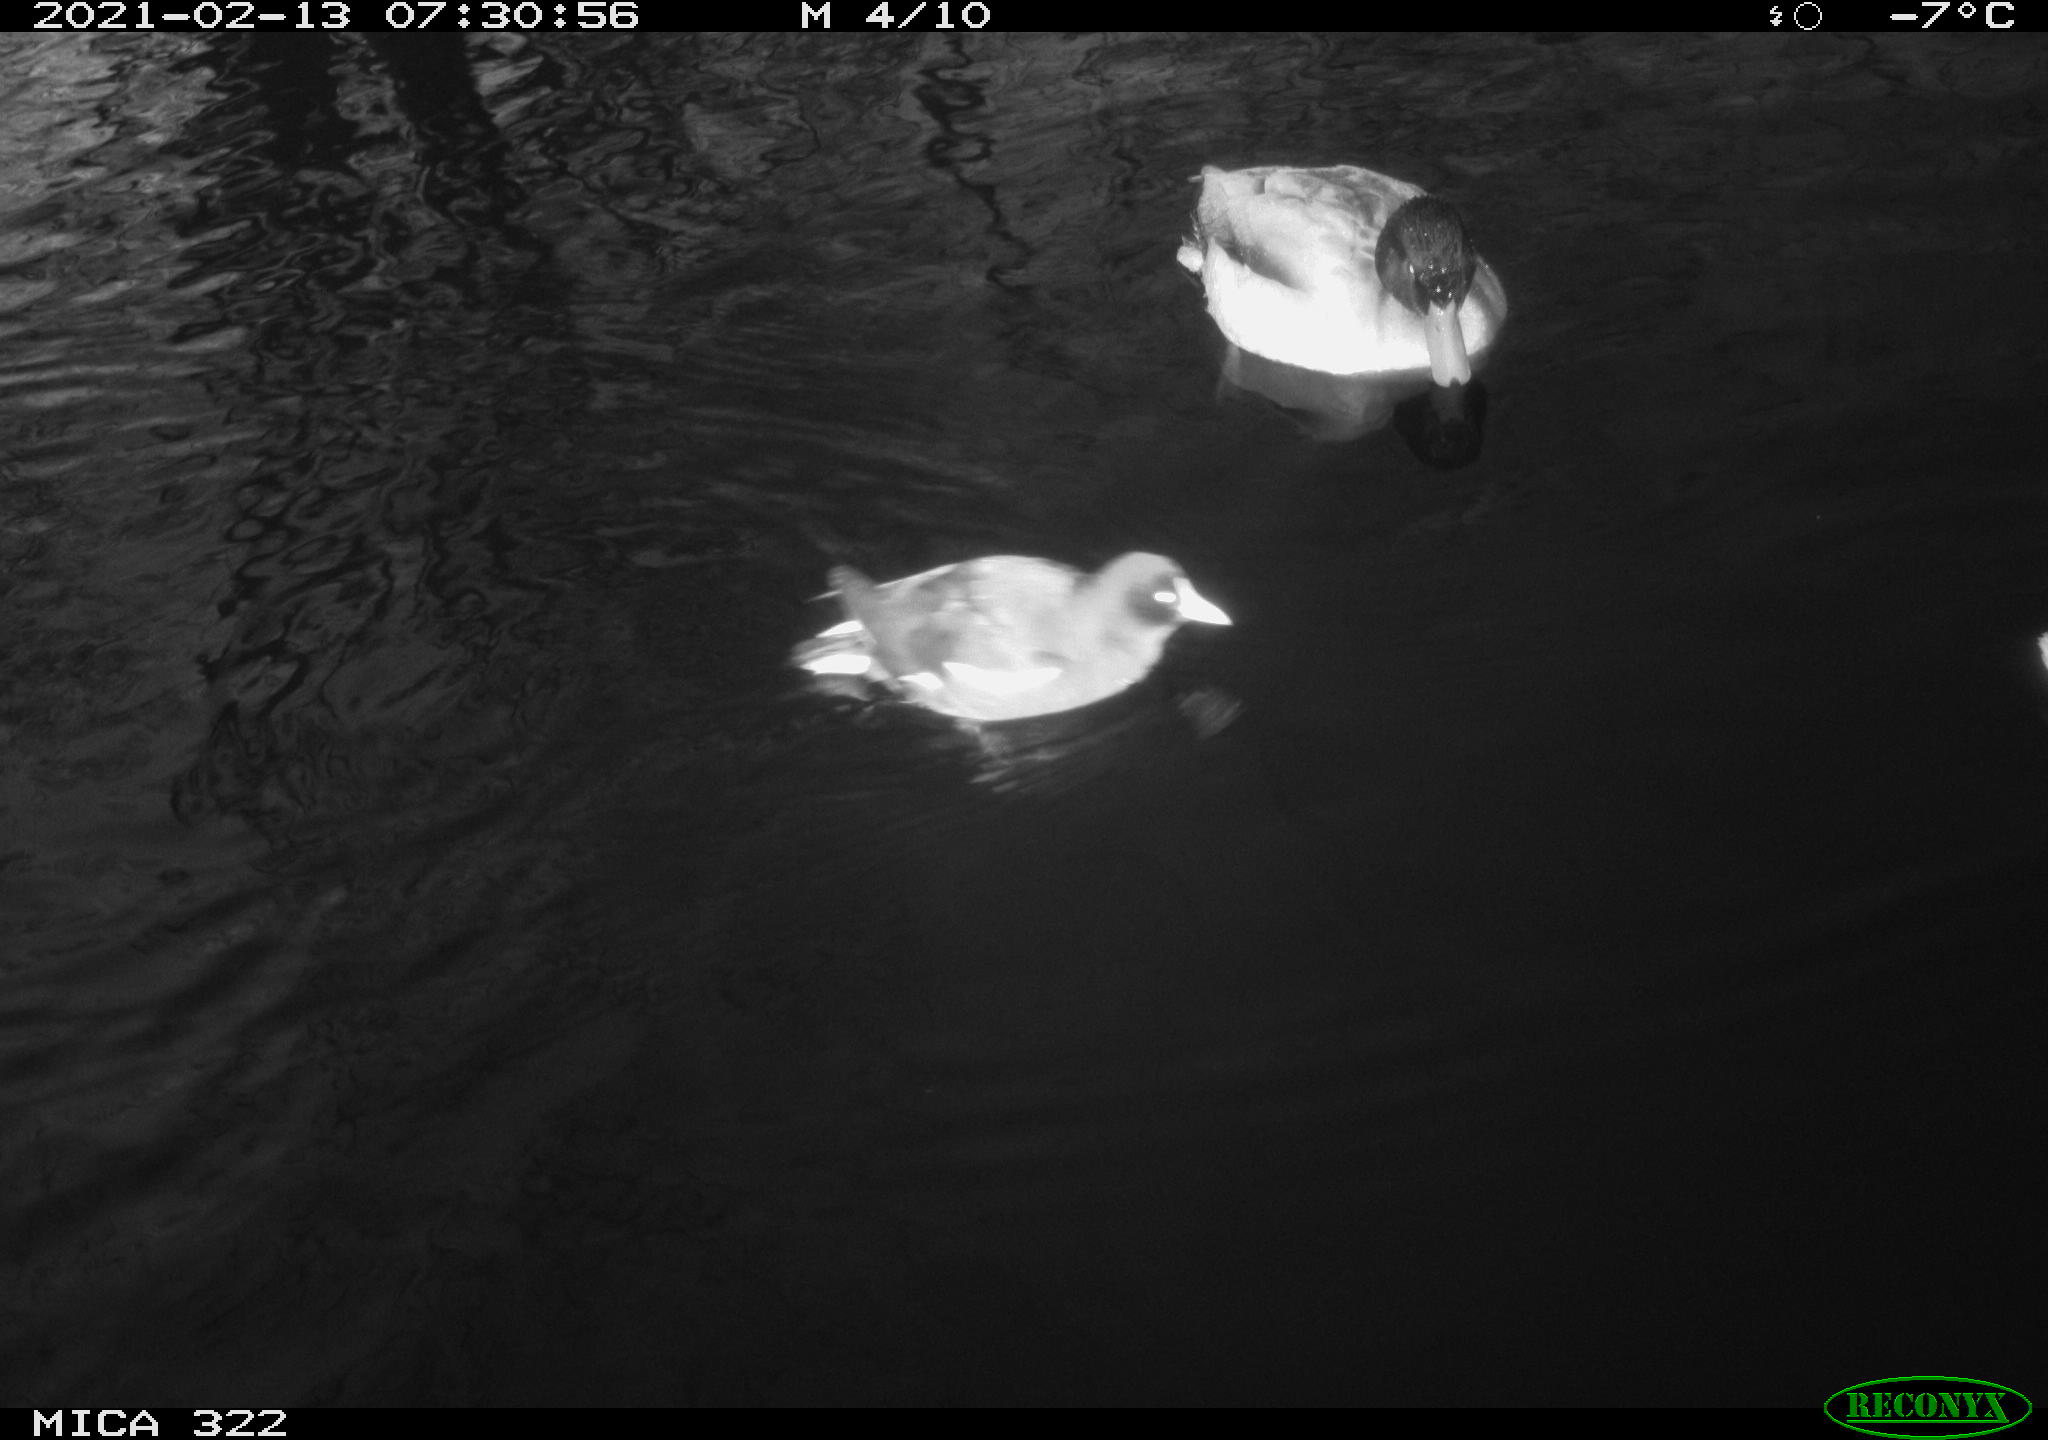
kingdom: Animalia
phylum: Chordata
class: Aves
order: Gruiformes
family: Rallidae
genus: Gallinula
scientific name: Gallinula chloropus
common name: Common moorhen
